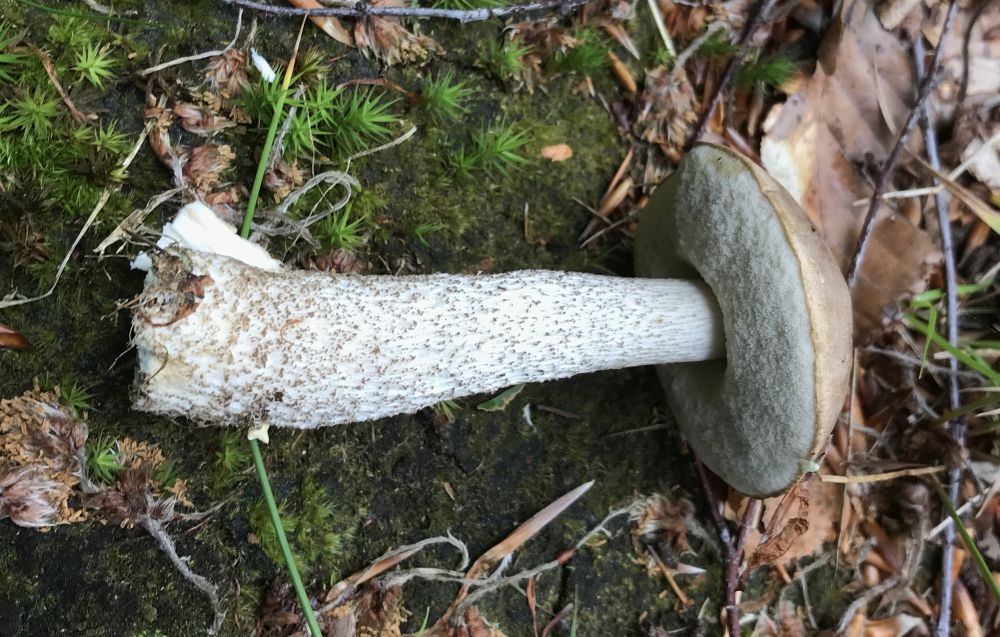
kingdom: Fungi
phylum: Basidiomycota
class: Agaricomycetes
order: Boletales
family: Boletaceae
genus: Leccinum
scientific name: Leccinum cyaneobasileucum
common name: almindelig skælrørhat
